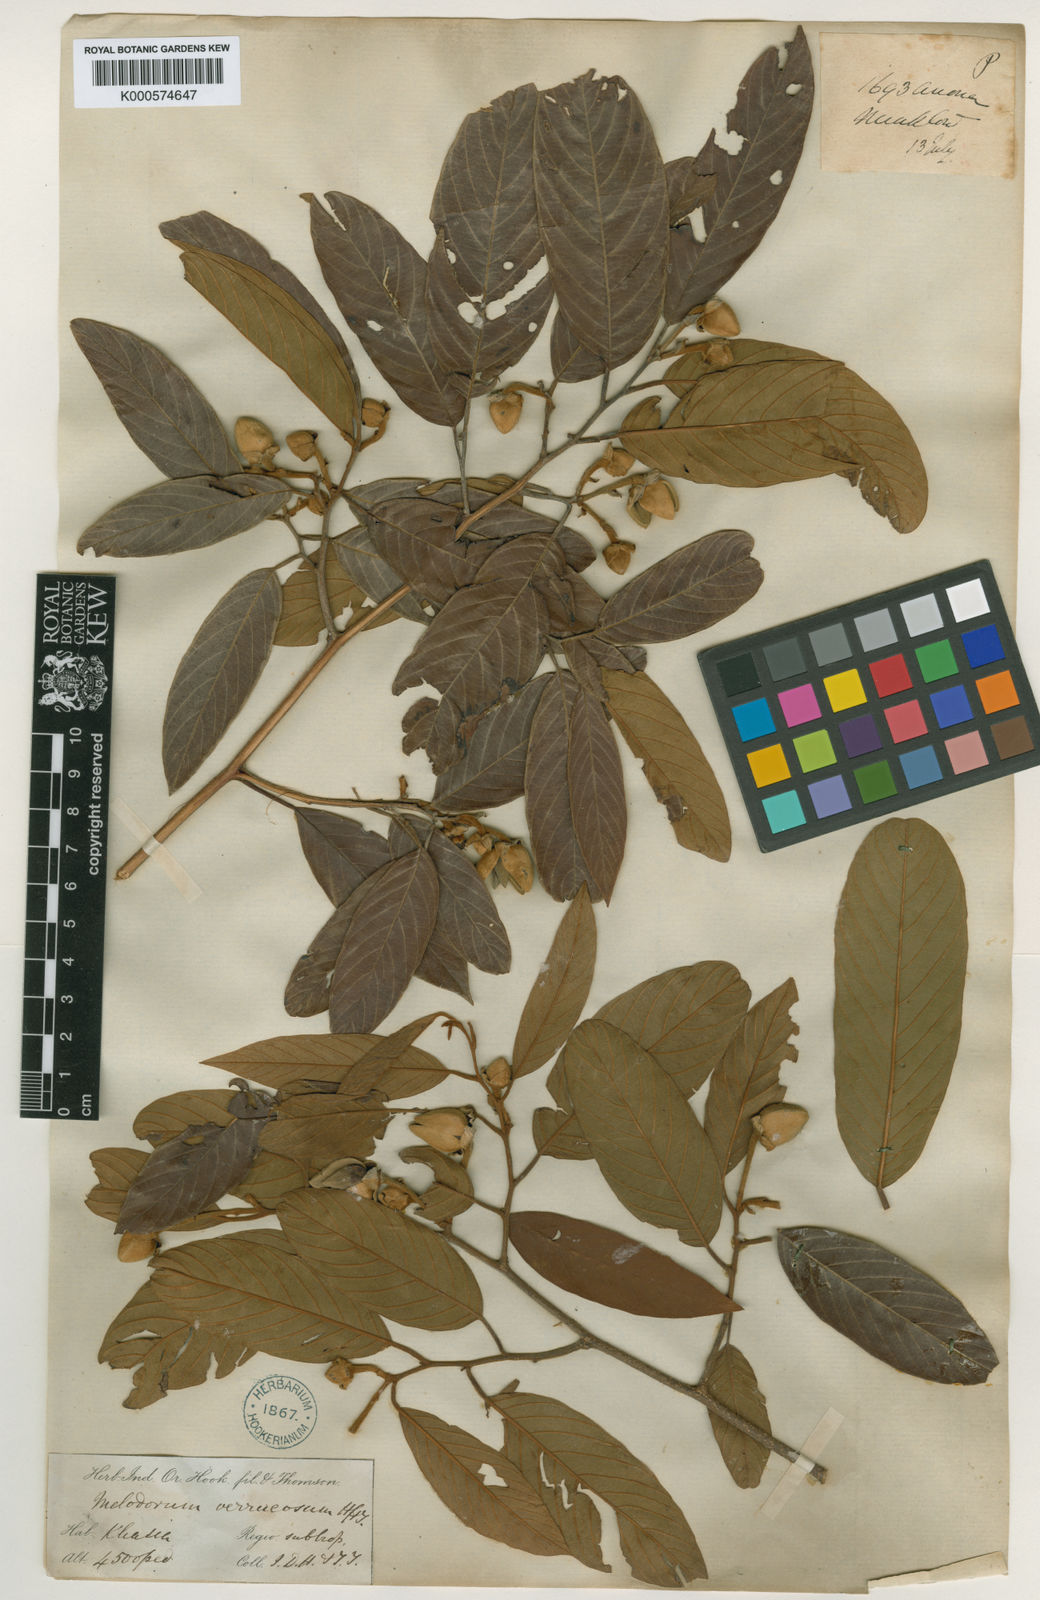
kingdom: Plantae
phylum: Tracheophyta
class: Magnoliopsida
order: Magnoliales
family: Annonaceae
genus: Fissistigma
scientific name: Fissistigma verrucosum
